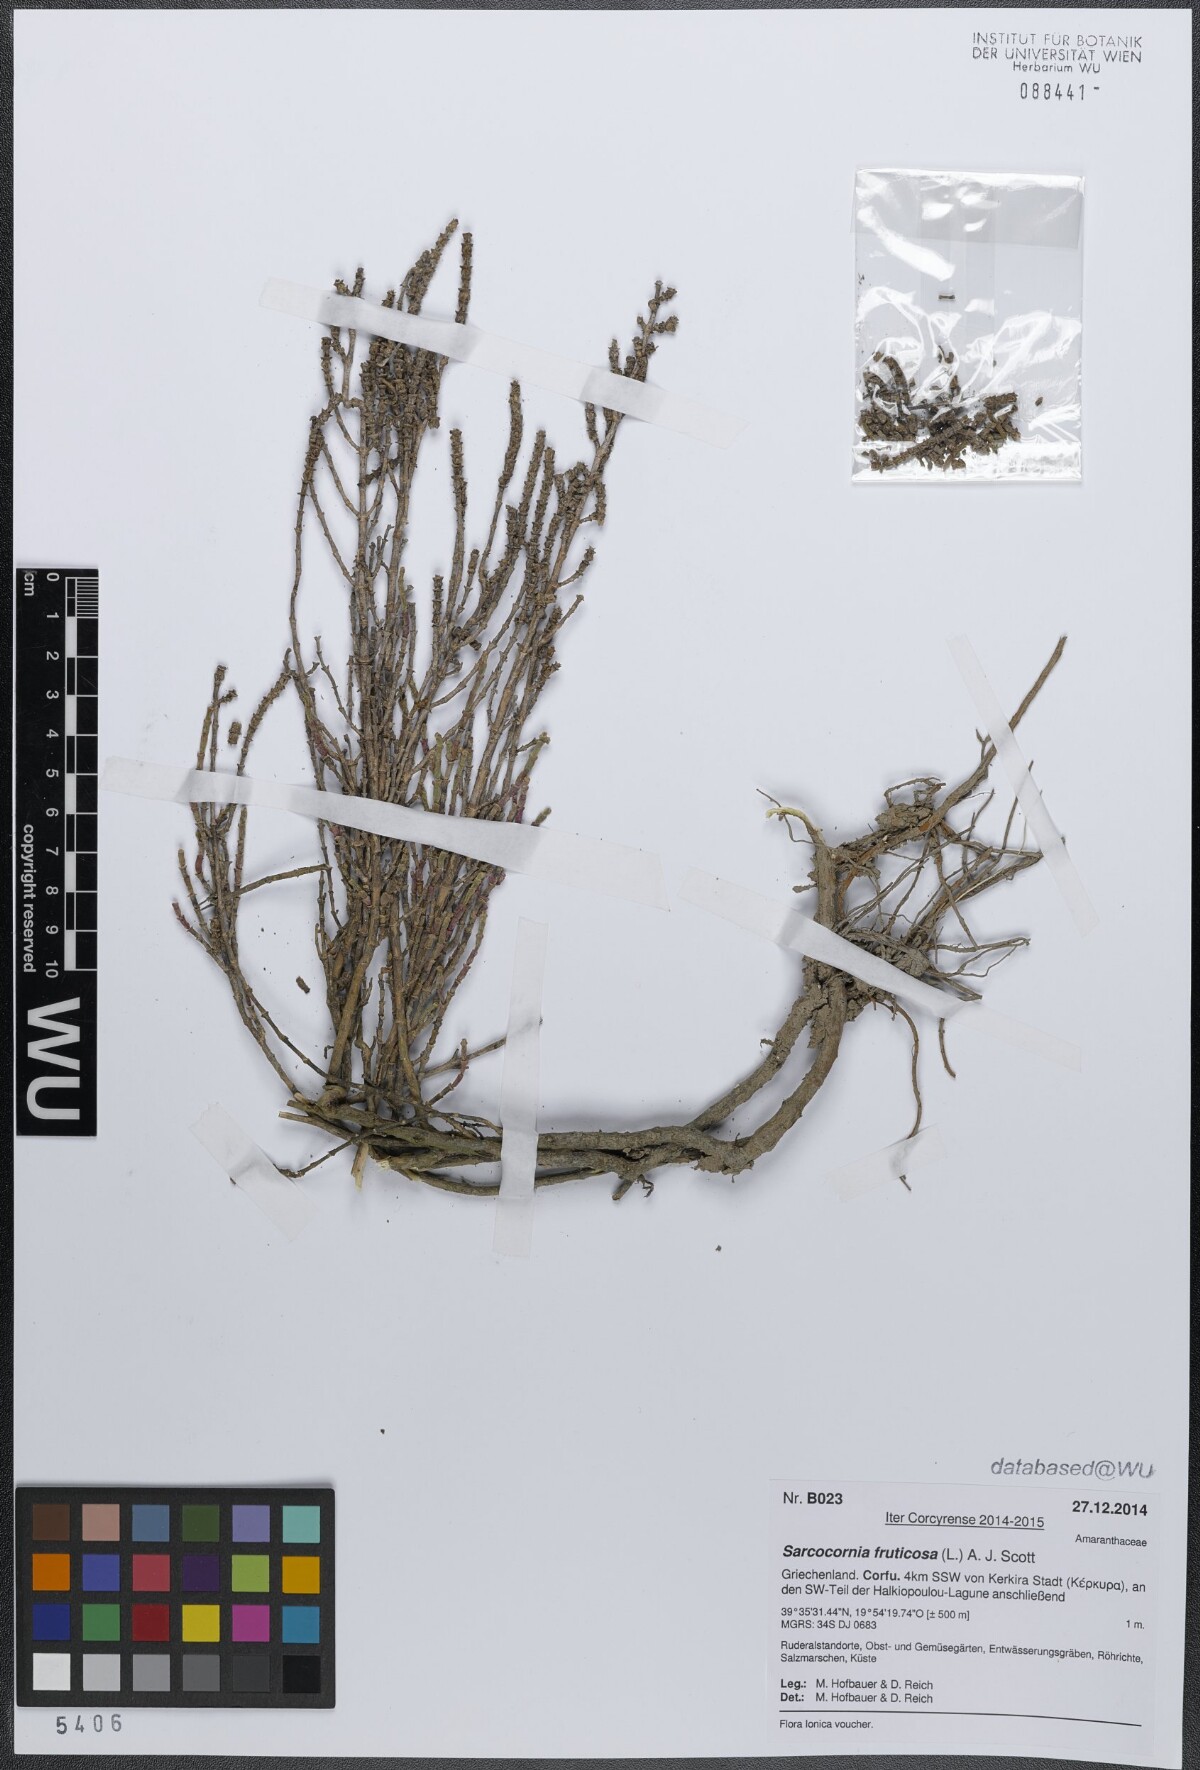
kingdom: Plantae
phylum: Tracheophyta
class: Magnoliopsida
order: Caryophyllales
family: Amaranthaceae
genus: Salicornia
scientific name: Salicornia fruticosa
